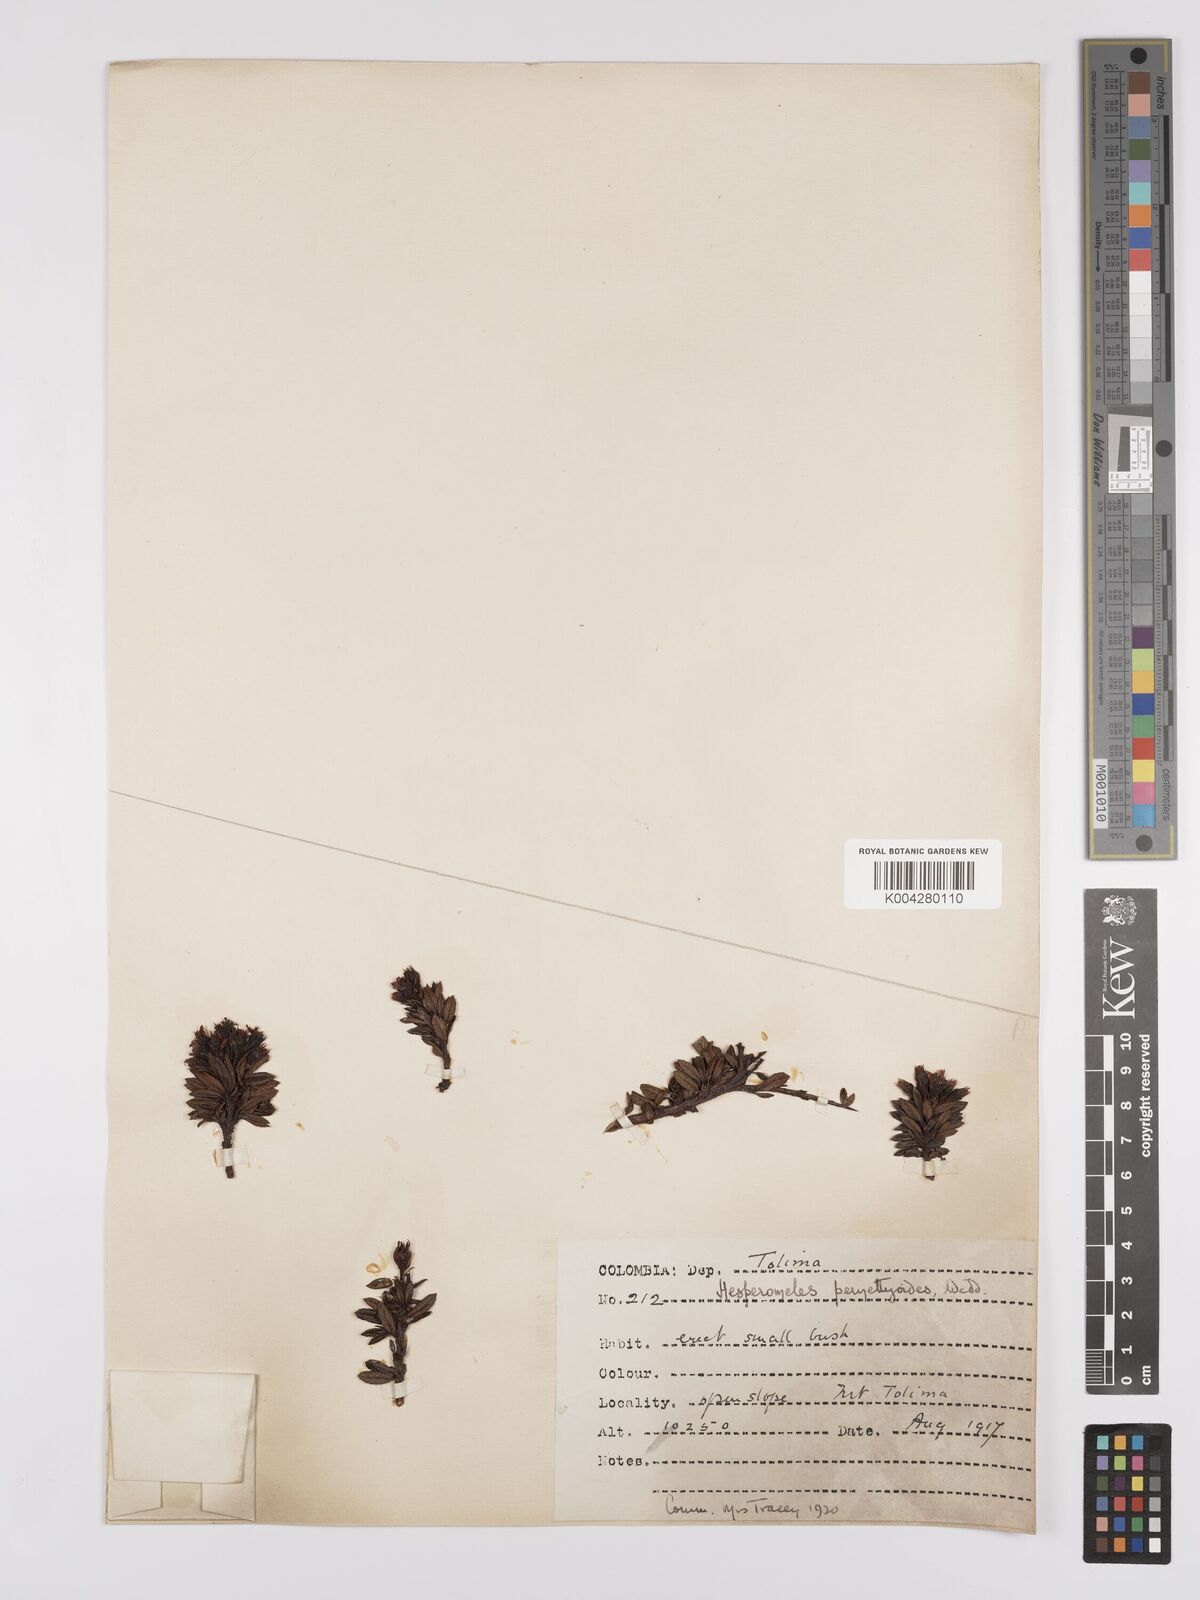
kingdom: Plantae
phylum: Tracheophyta
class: Magnoliopsida
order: Rosales
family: Rosaceae
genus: Hesperomeles
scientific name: Hesperomeles obtusifolia
